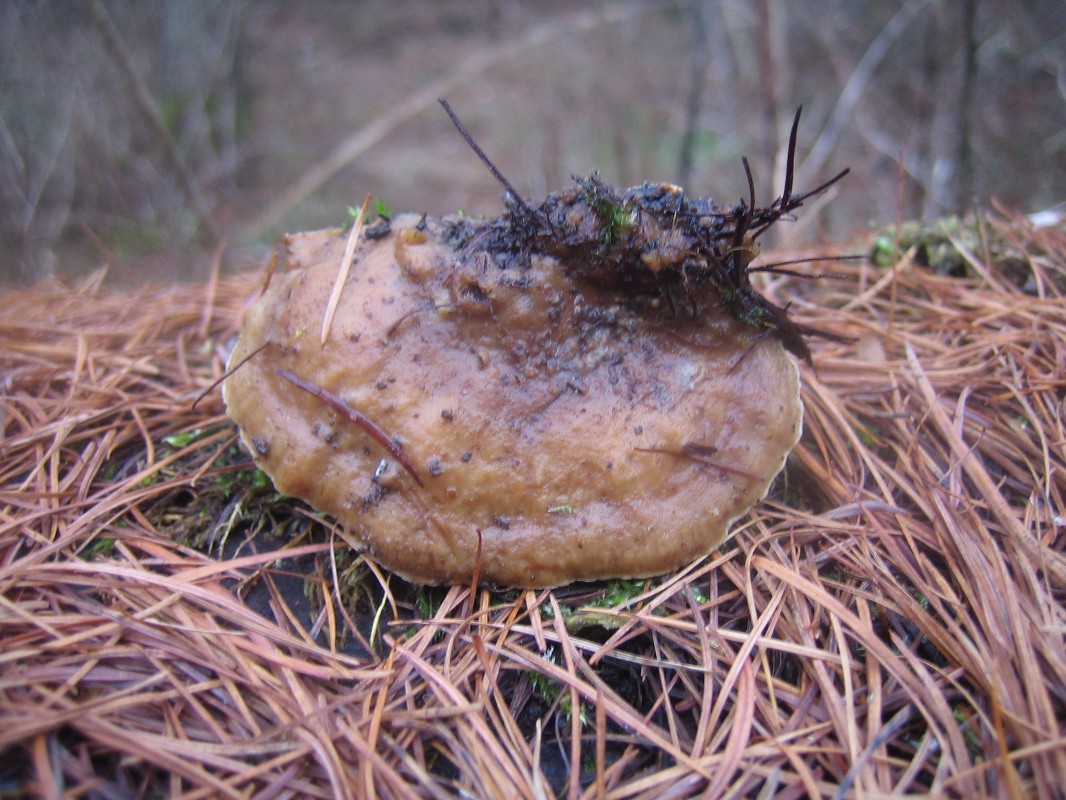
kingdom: Fungi
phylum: Basidiomycota
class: Agaricomycetes
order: Polyporales
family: Phanerochaetaceae
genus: Bjerkandera
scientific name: Bjerkandera fumosa
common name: grågul sodporesvamp
